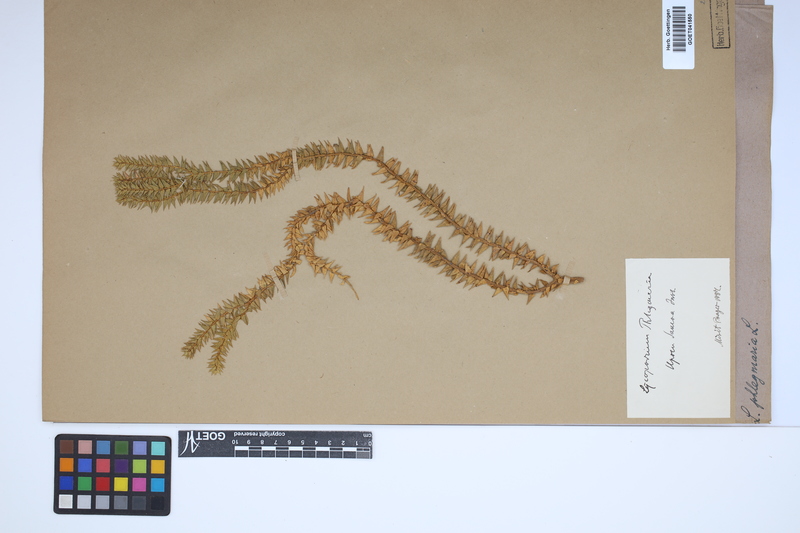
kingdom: Plantae
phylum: Tracheophyta
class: Lycopodiopsida
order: Lycopodiales
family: Lycopodiaceae
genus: Phlegmariurus
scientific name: Phlegmariurus phlegmaria
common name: Coarse tassel-fern
